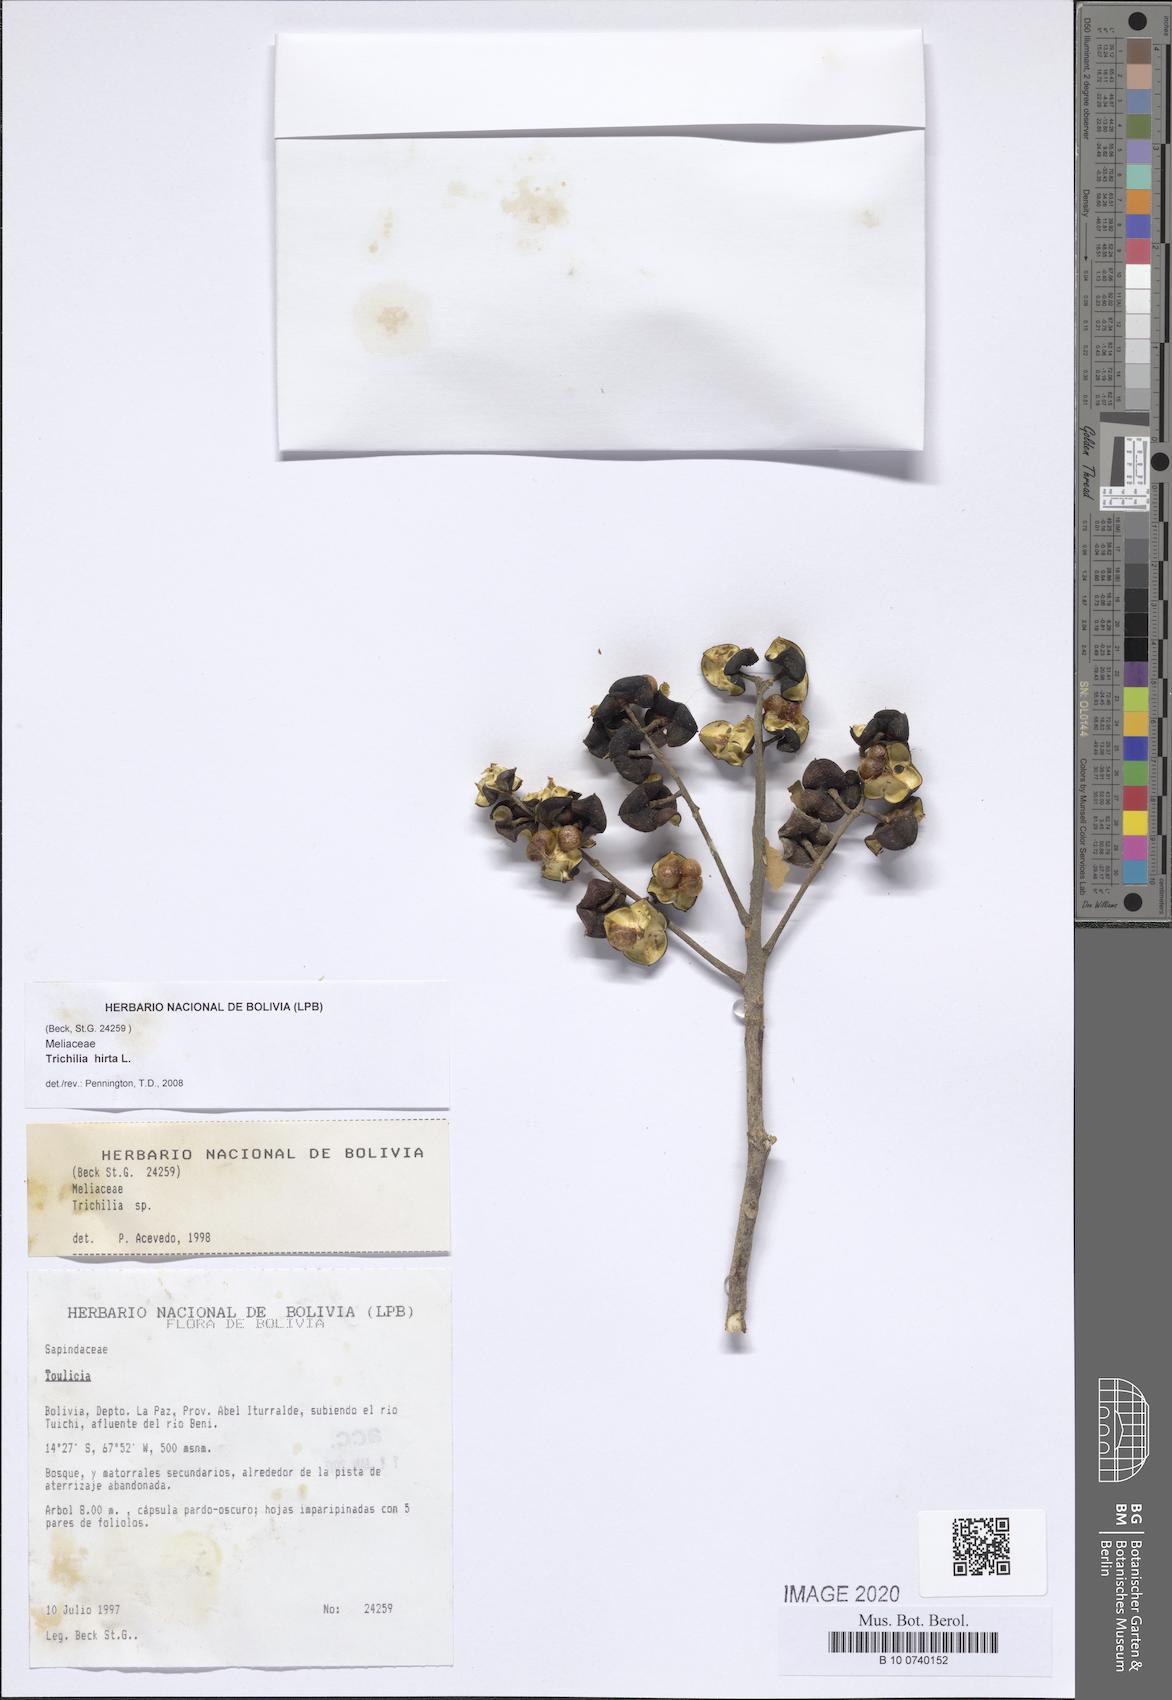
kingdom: Plantae
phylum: Tracheophyta
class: Magnoliopsida
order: Sapindales
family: Meliaceae
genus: Trichilia
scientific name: Trichilia hirta
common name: Red-cedar
